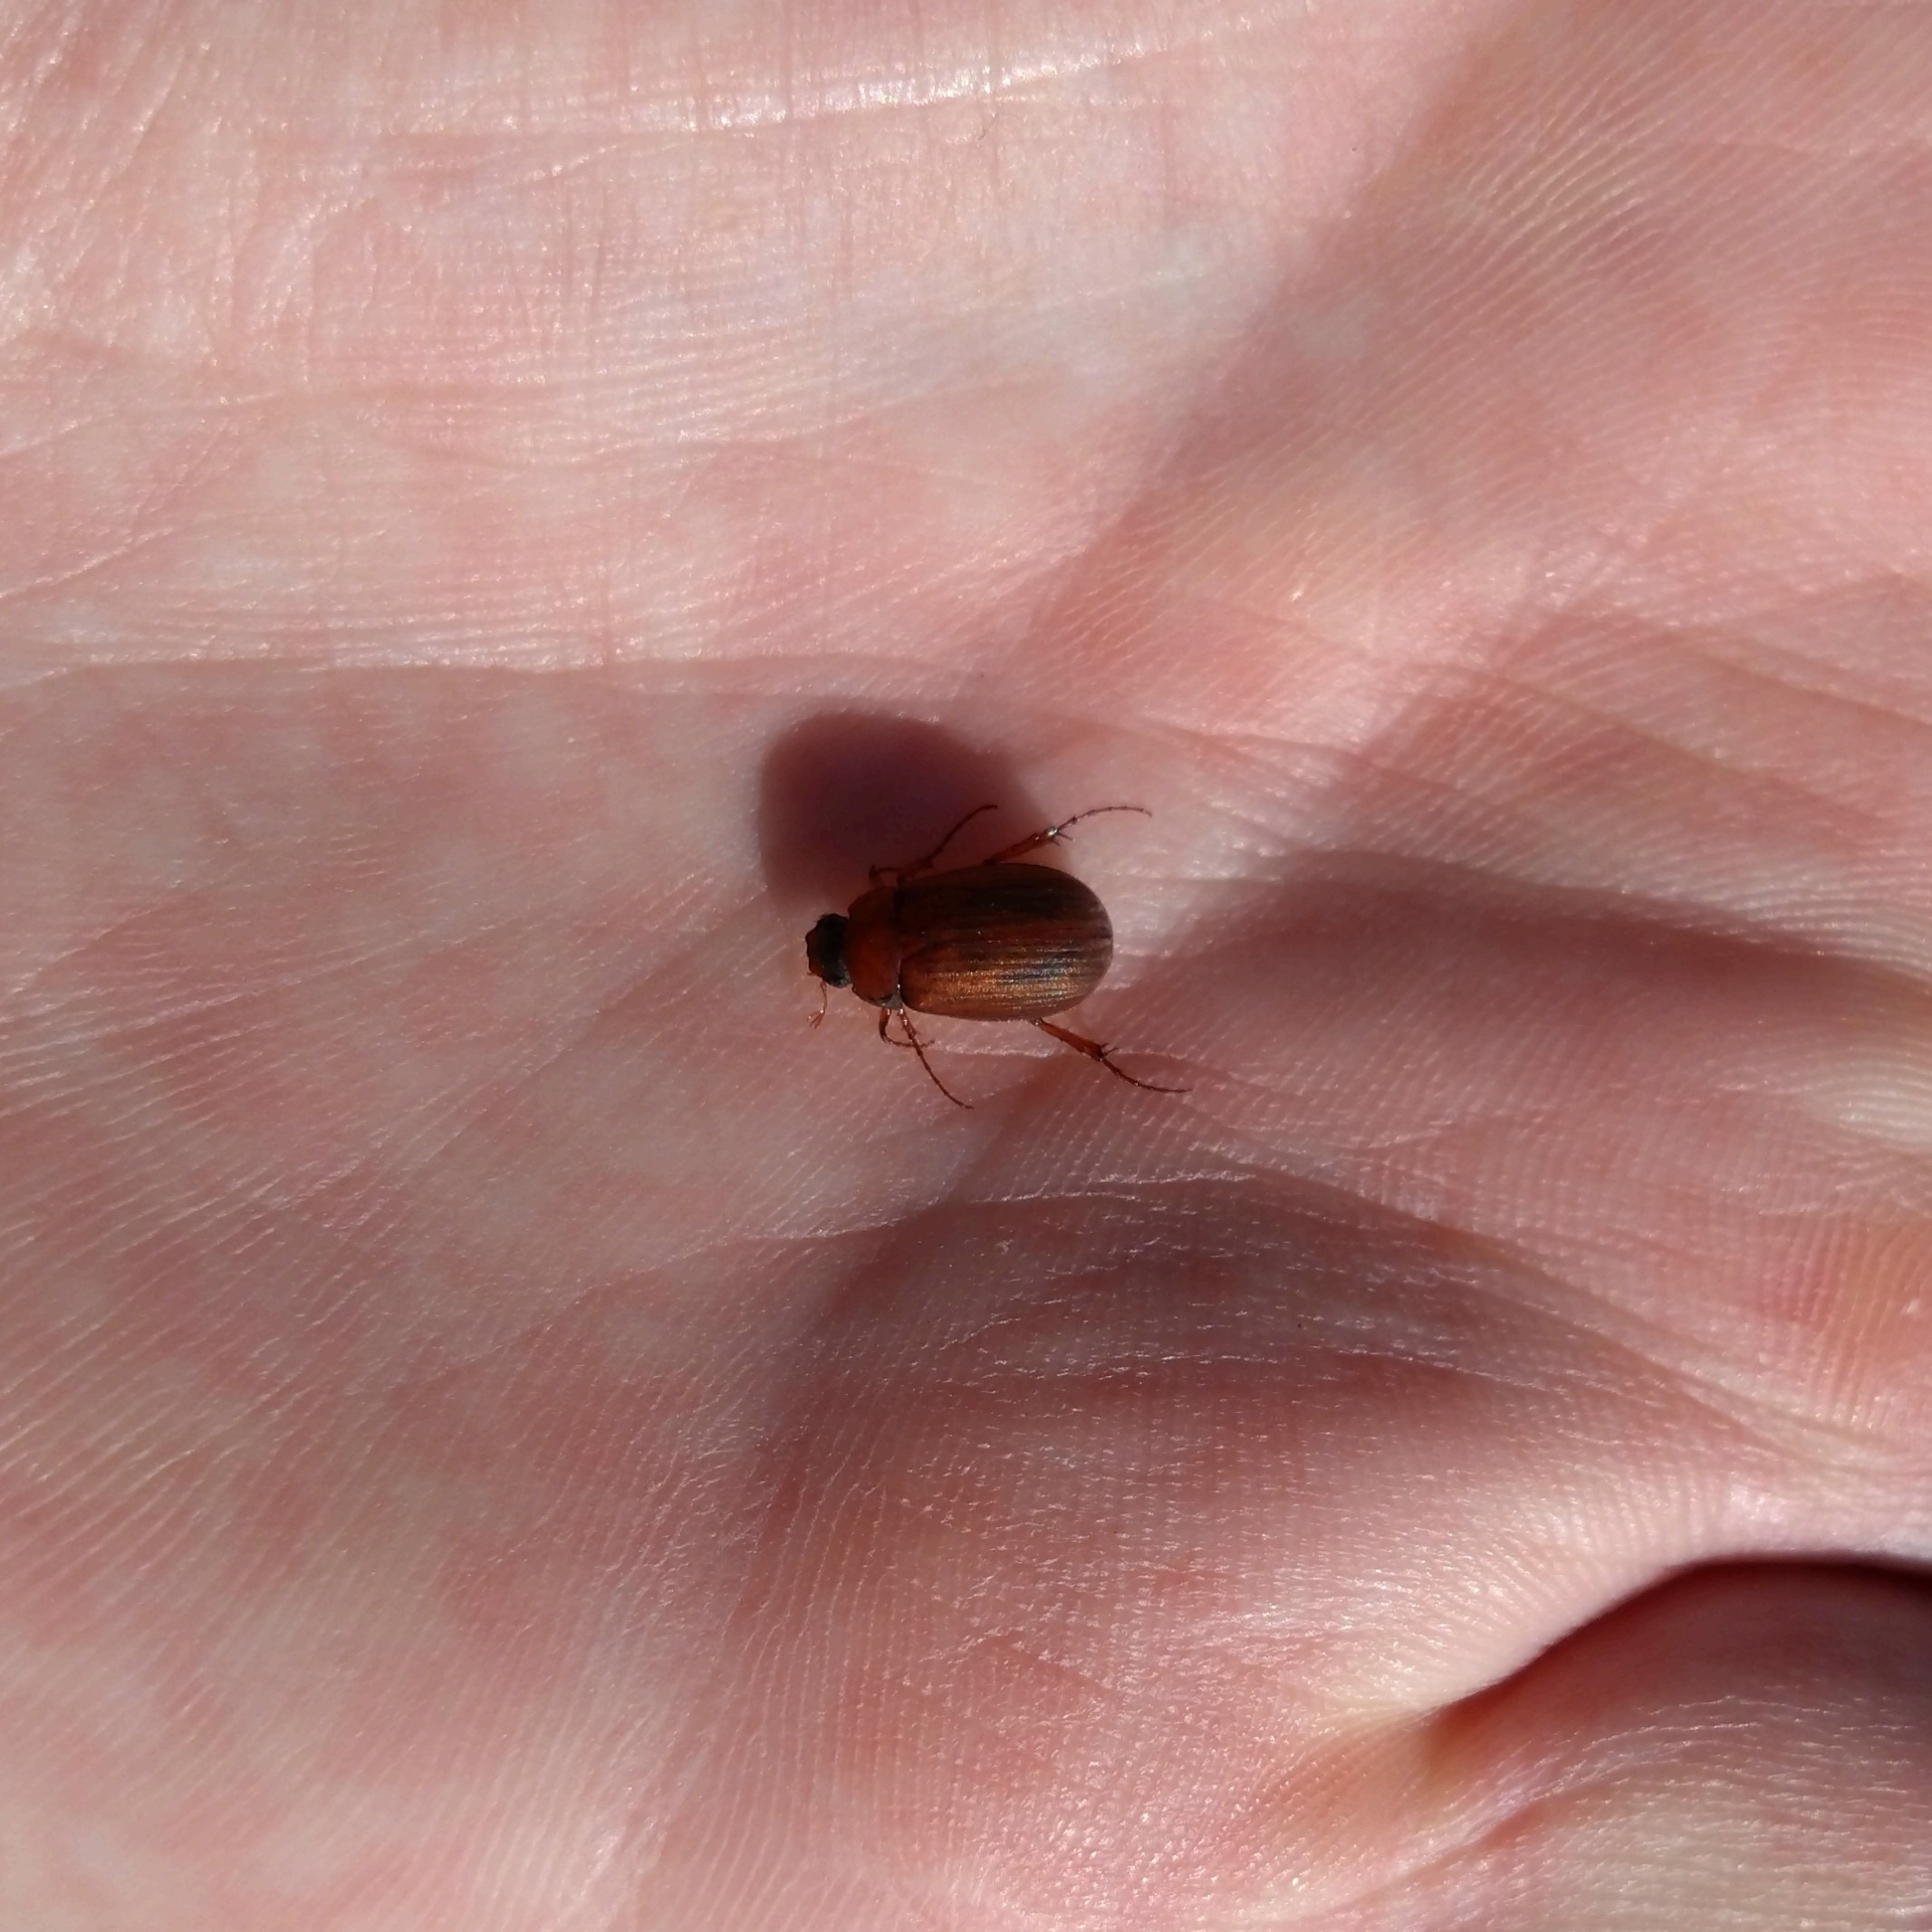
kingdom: Animalia
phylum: Arthropoda
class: Insecta
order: Coleoptera
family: Scarabaeidae
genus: Serica
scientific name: Serica brunnea
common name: Natoldenborre
